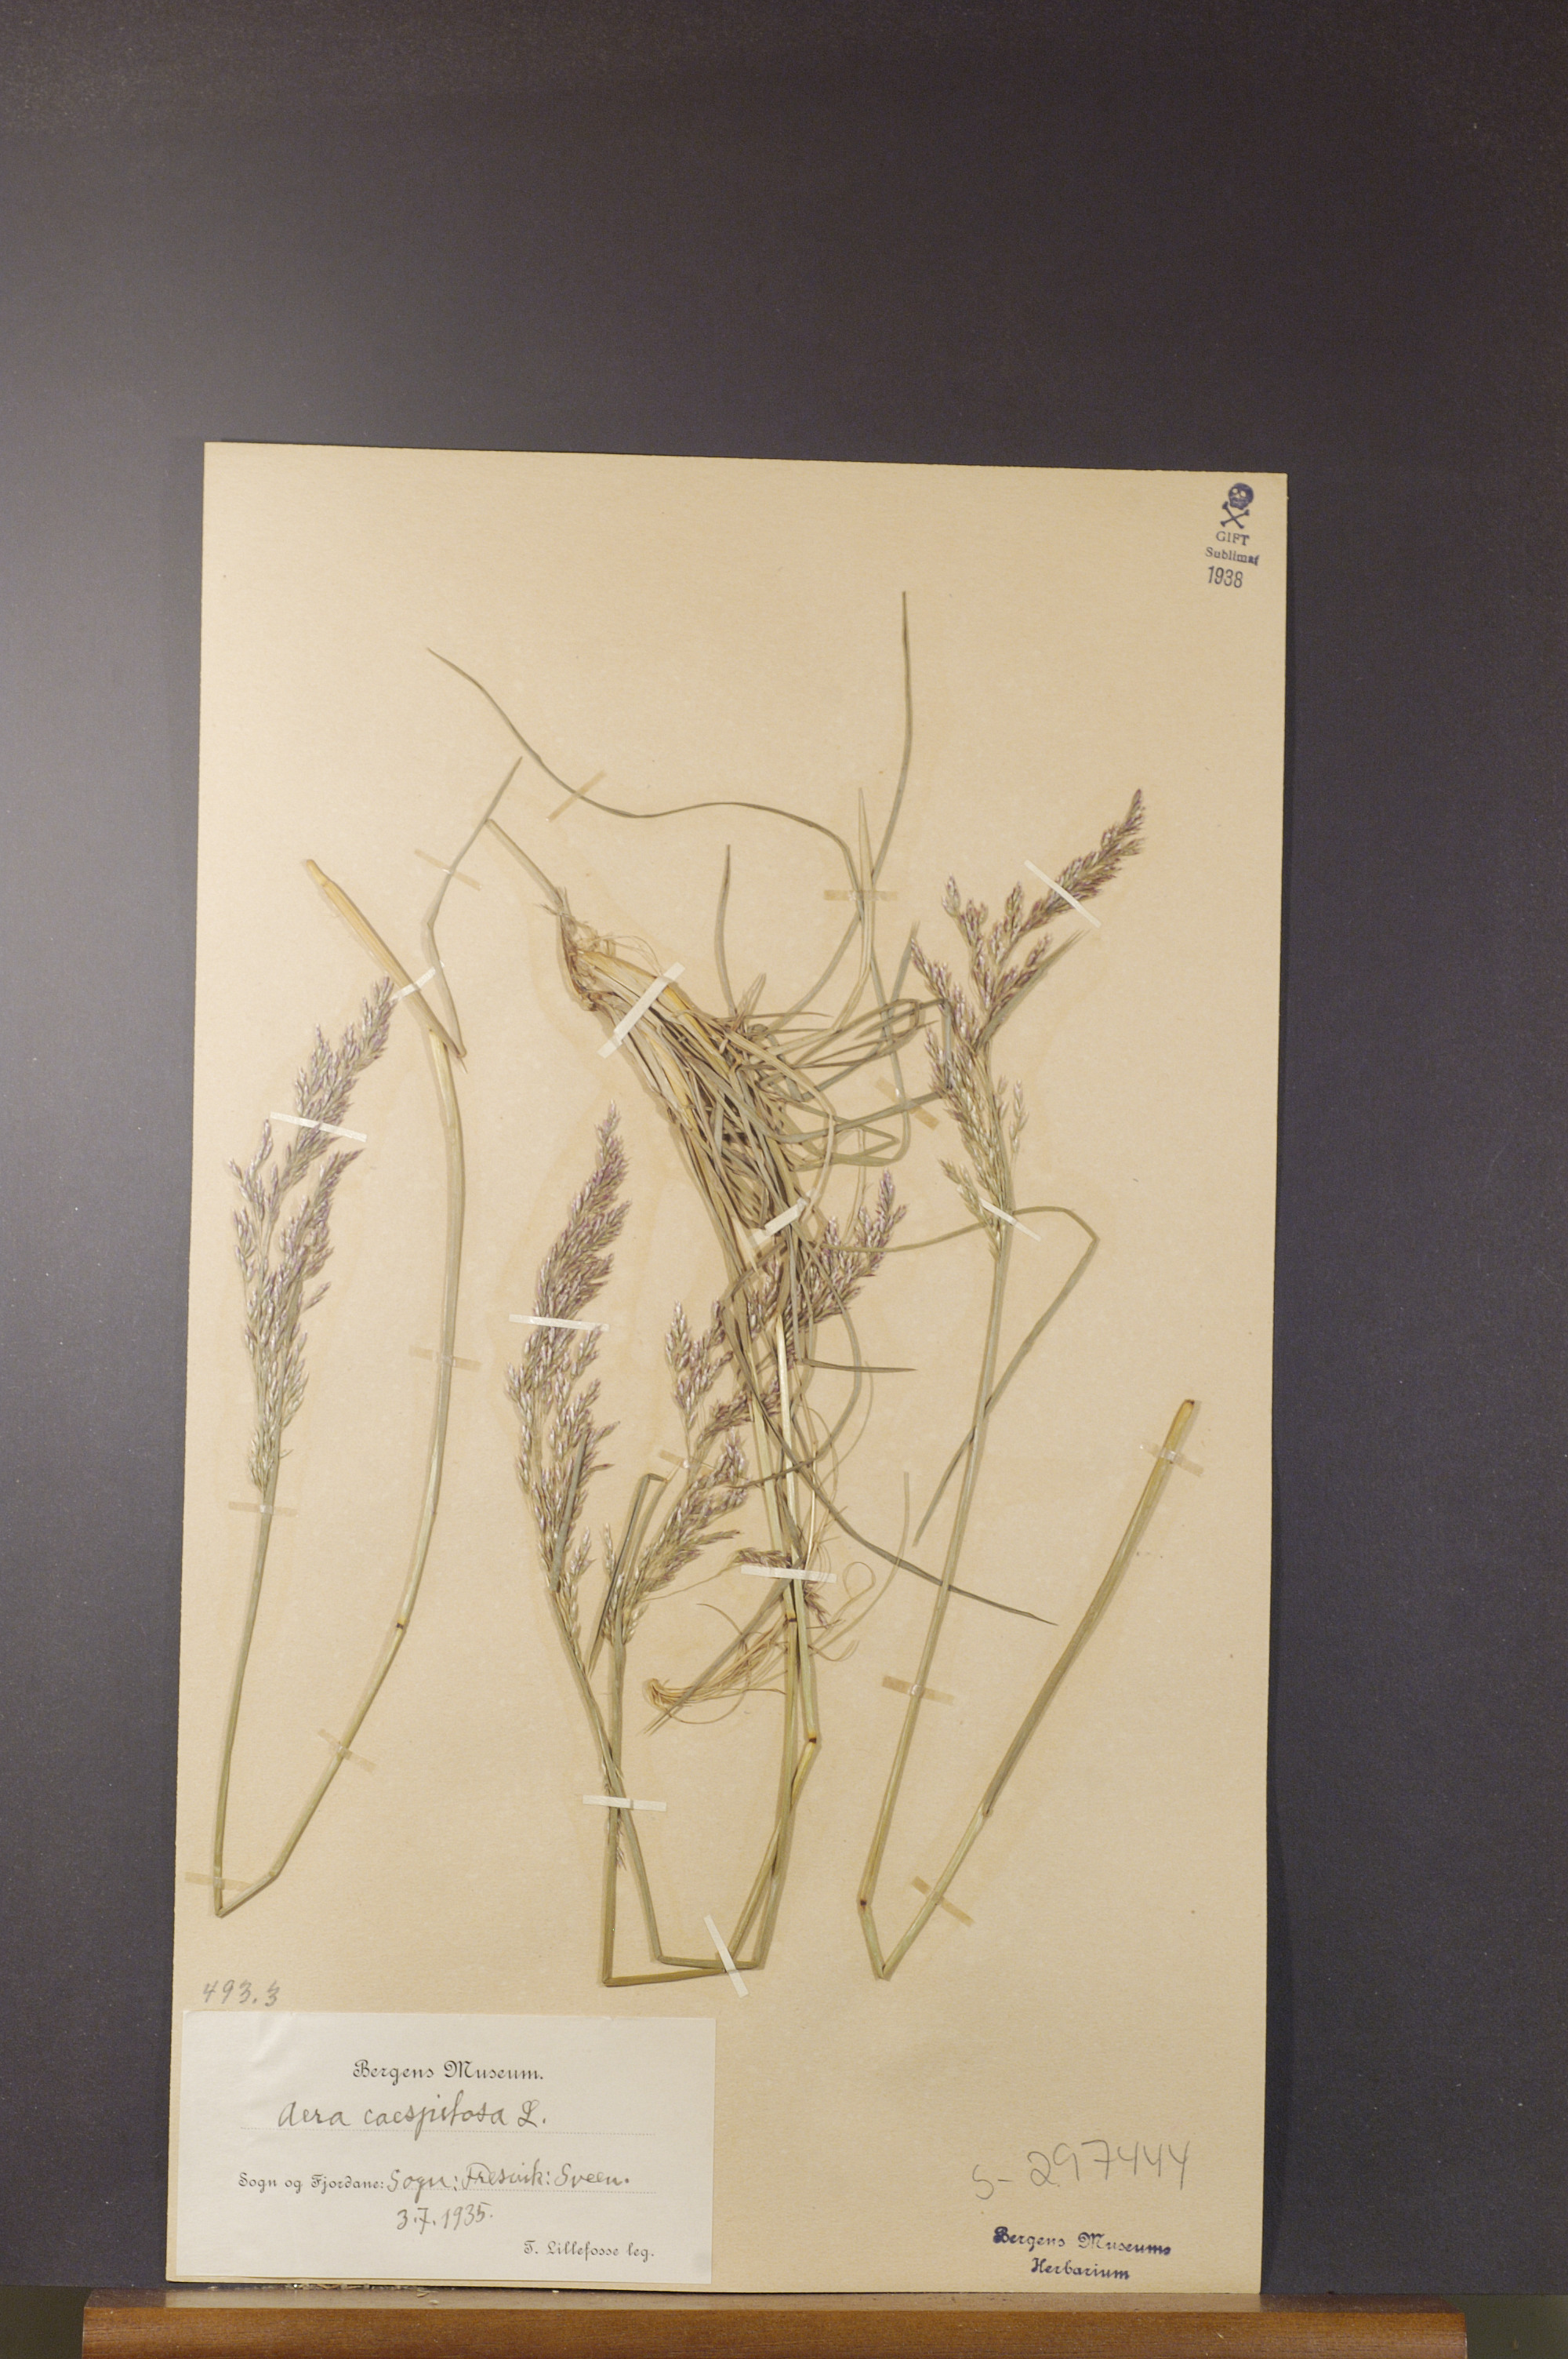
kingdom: Plantae
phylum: Tracheophyta
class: Liliopsida
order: Poales
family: Poaceae
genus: Deschampsia
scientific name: Deschampsia cespitosa
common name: Tufted hair-grass
